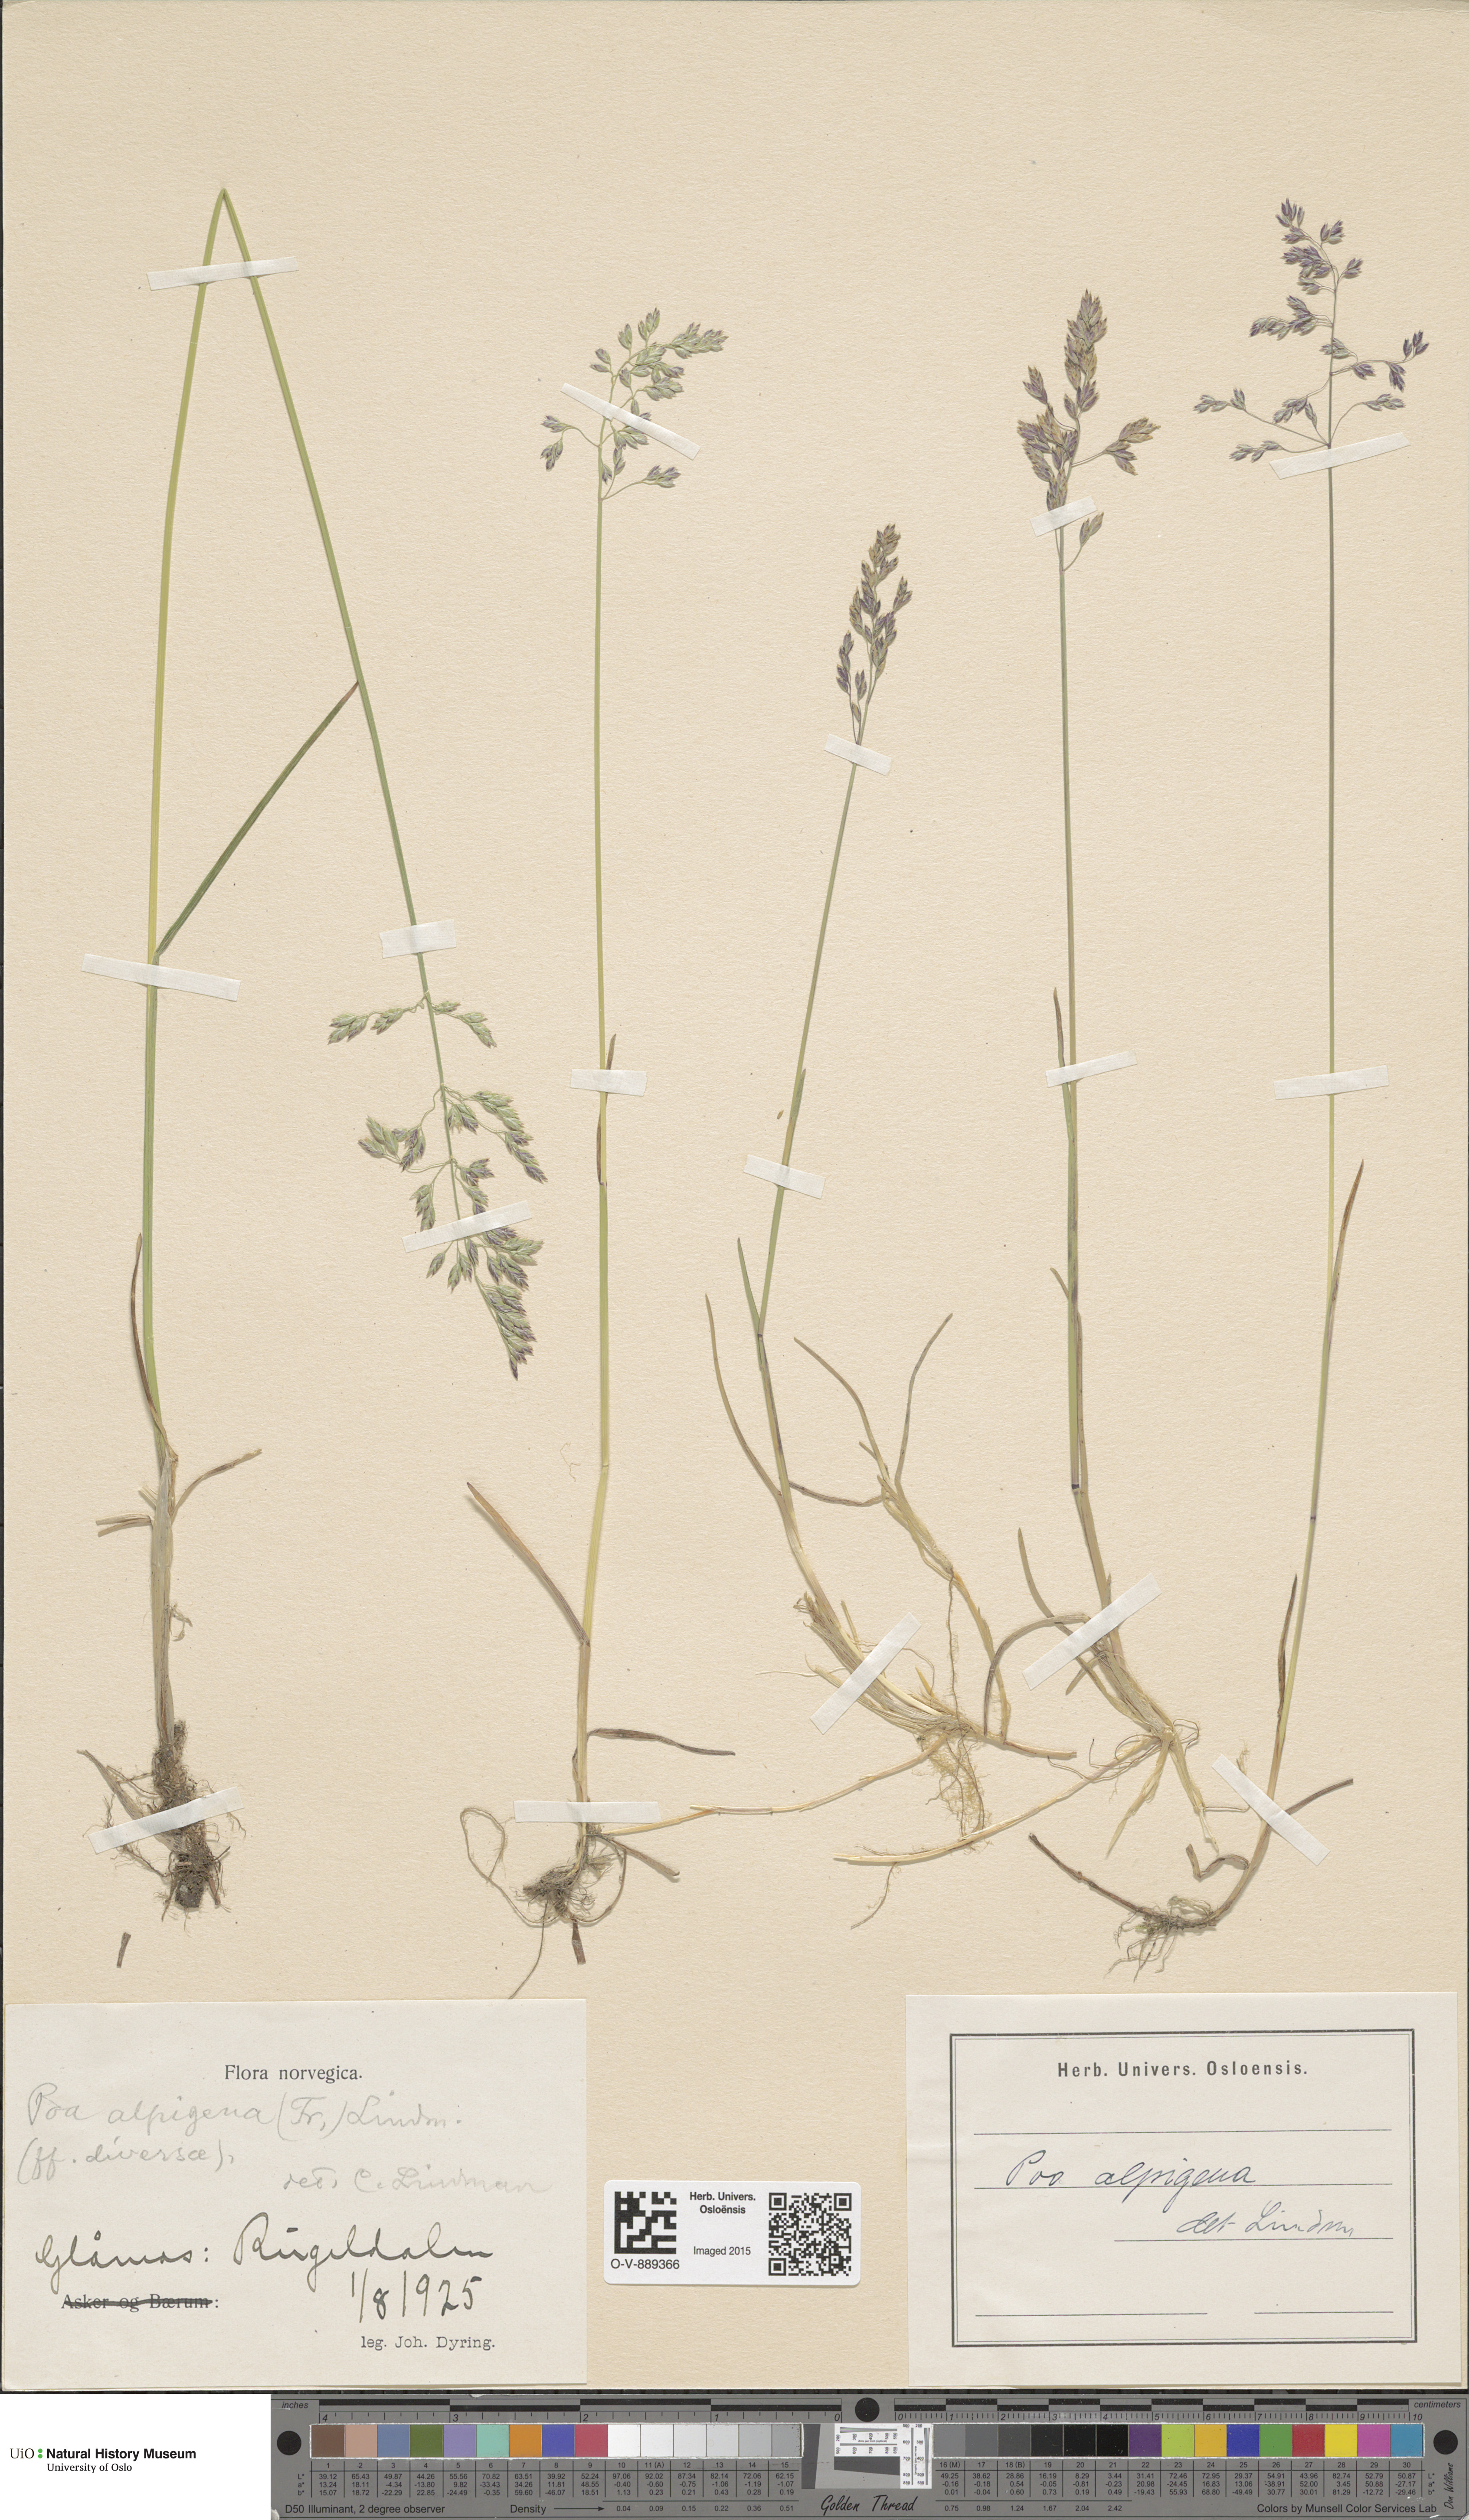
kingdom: Plantae
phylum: Tracheophyta
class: Liliopsida
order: Poales
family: Poaceae
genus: Poa
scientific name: Poa alpigena
